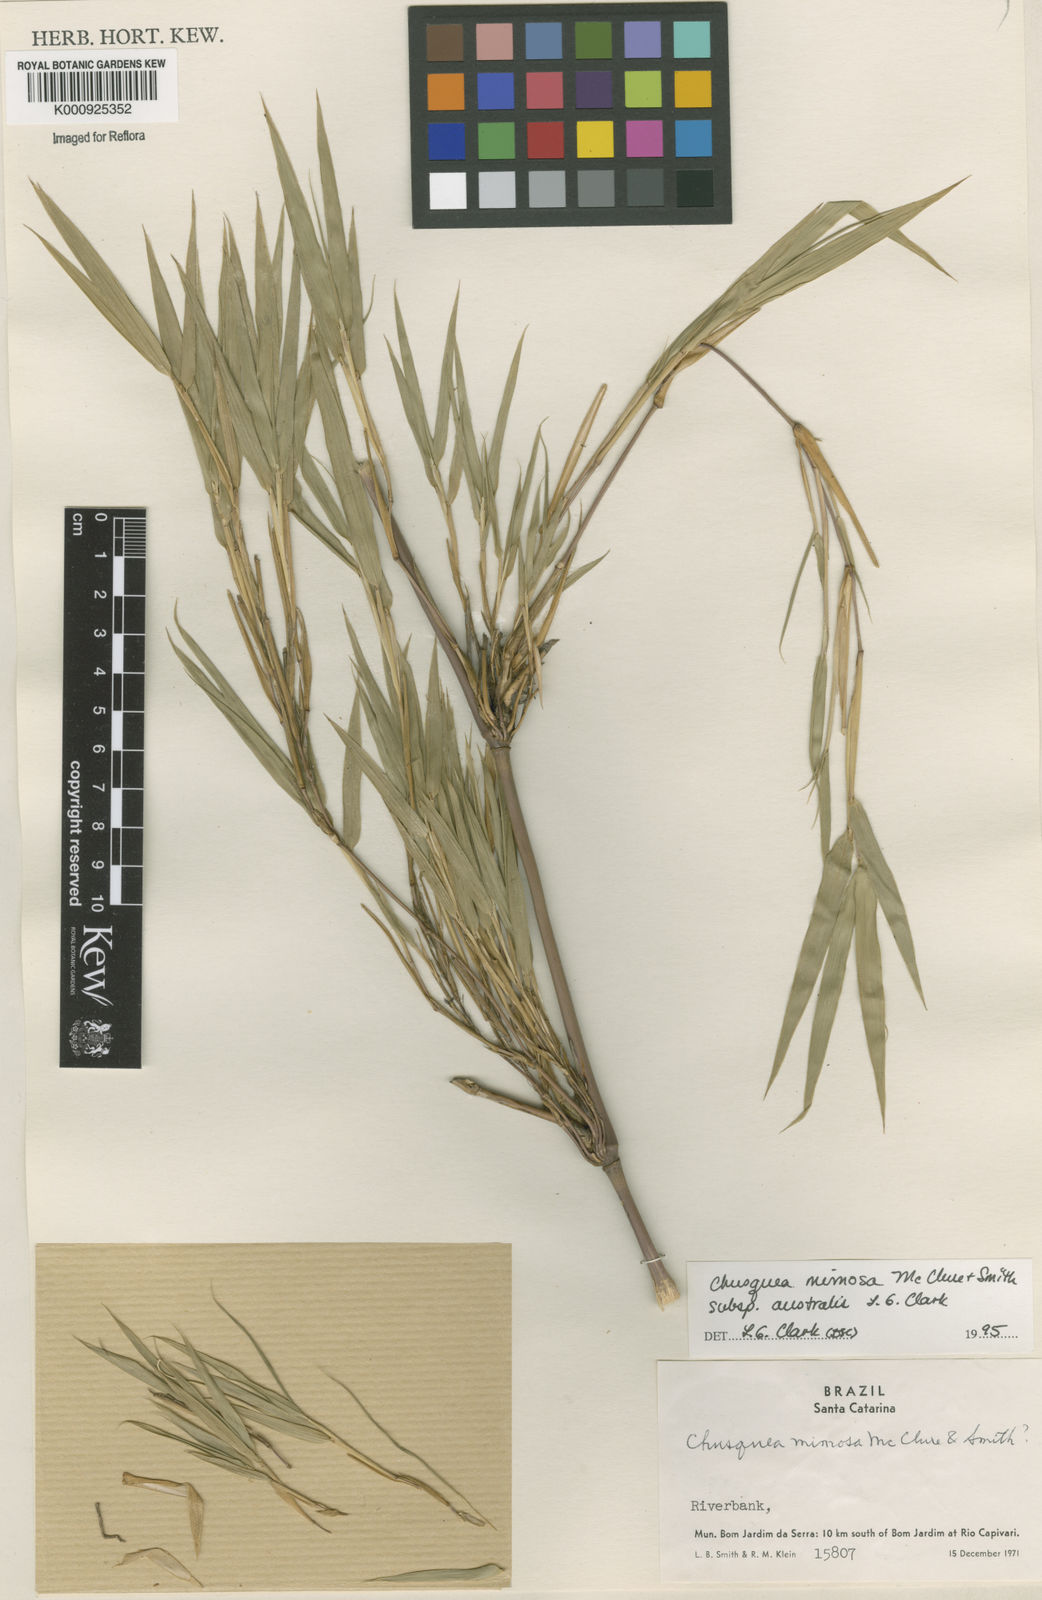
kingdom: Plantae
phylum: Tracheophyta
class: Liliopsida
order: Poales
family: Poaceae
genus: Chusquea
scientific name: Chusquea mimosa
